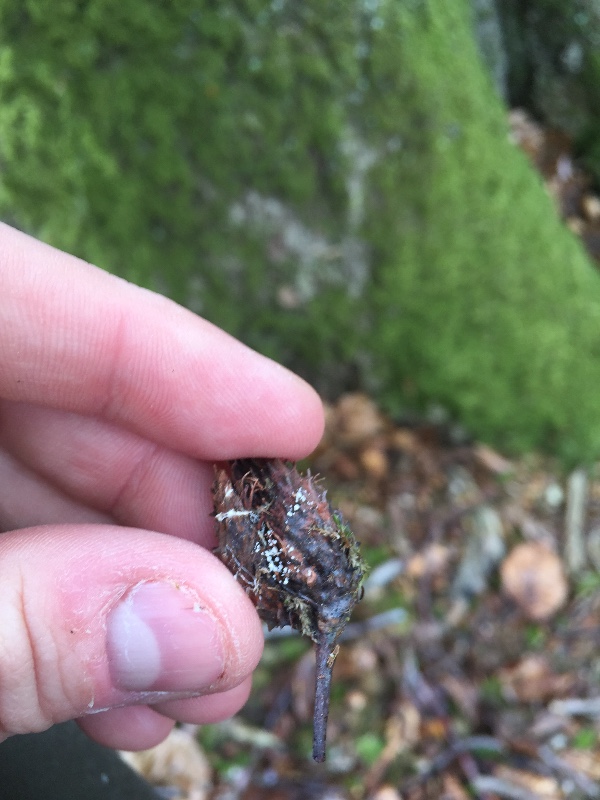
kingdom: Fungi
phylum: Ascomycota
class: Leotiomycetes
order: Helotiales
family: Lachnaceae
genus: Lachnum
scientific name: Lachnum virgineum
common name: jomfru-frynseskive
